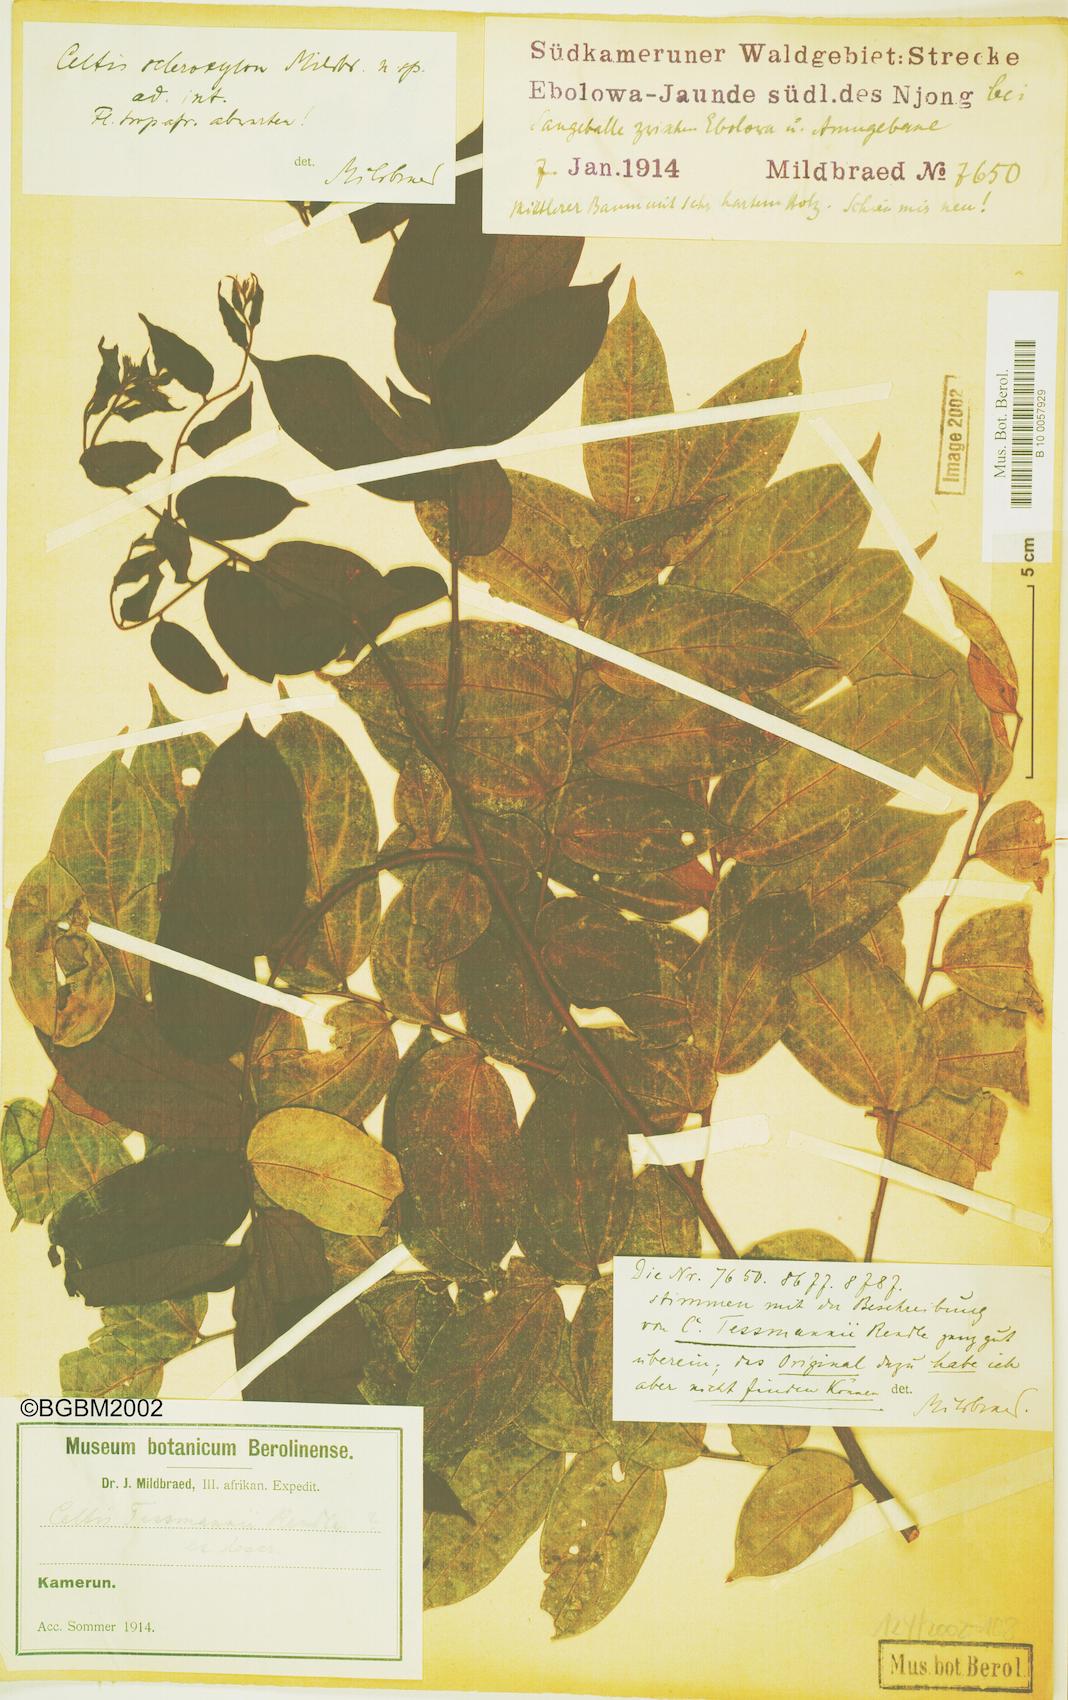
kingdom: Plantae
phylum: Tracheophyta
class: Magnoliopsida
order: Rosales
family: Cannabaceae
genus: Celtis
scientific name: Celtis tessmannii
